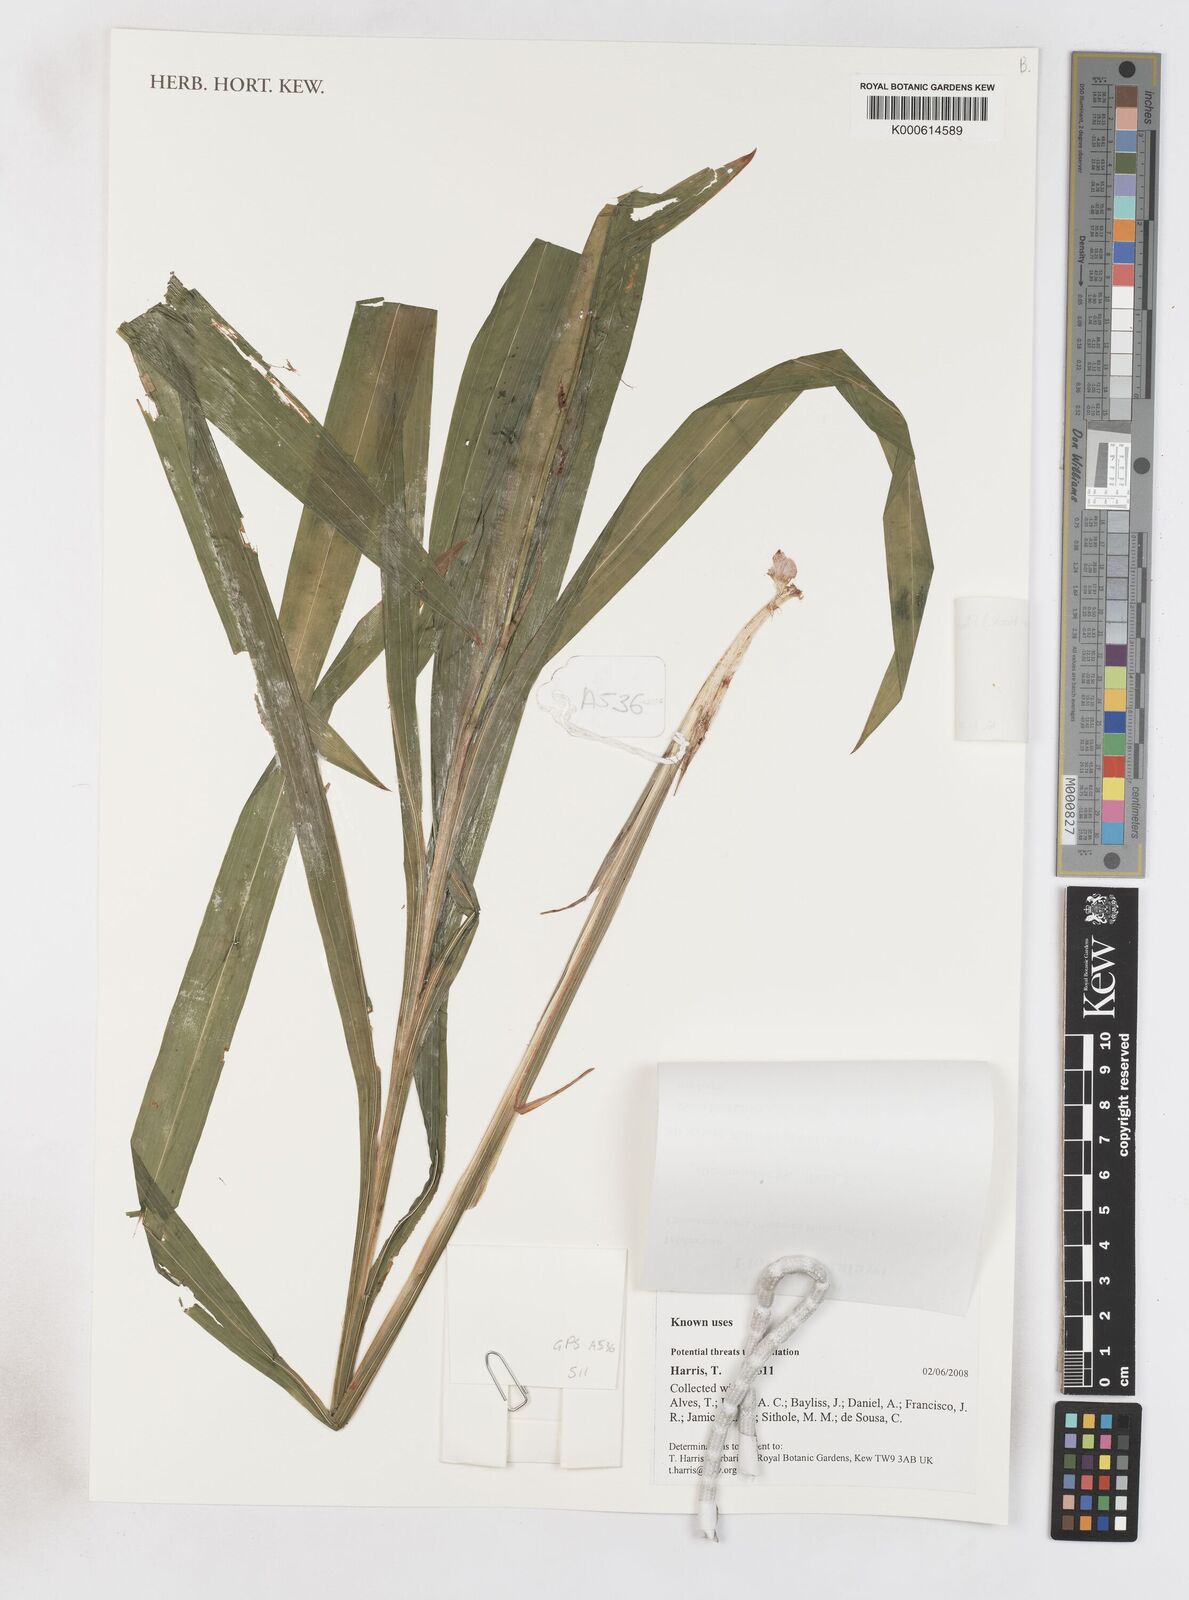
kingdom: Plantae
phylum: Tracheophyta
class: Liliopsida
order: Asparagales
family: Iridaceae
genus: Crocosmia
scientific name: Crocosmia aurea
